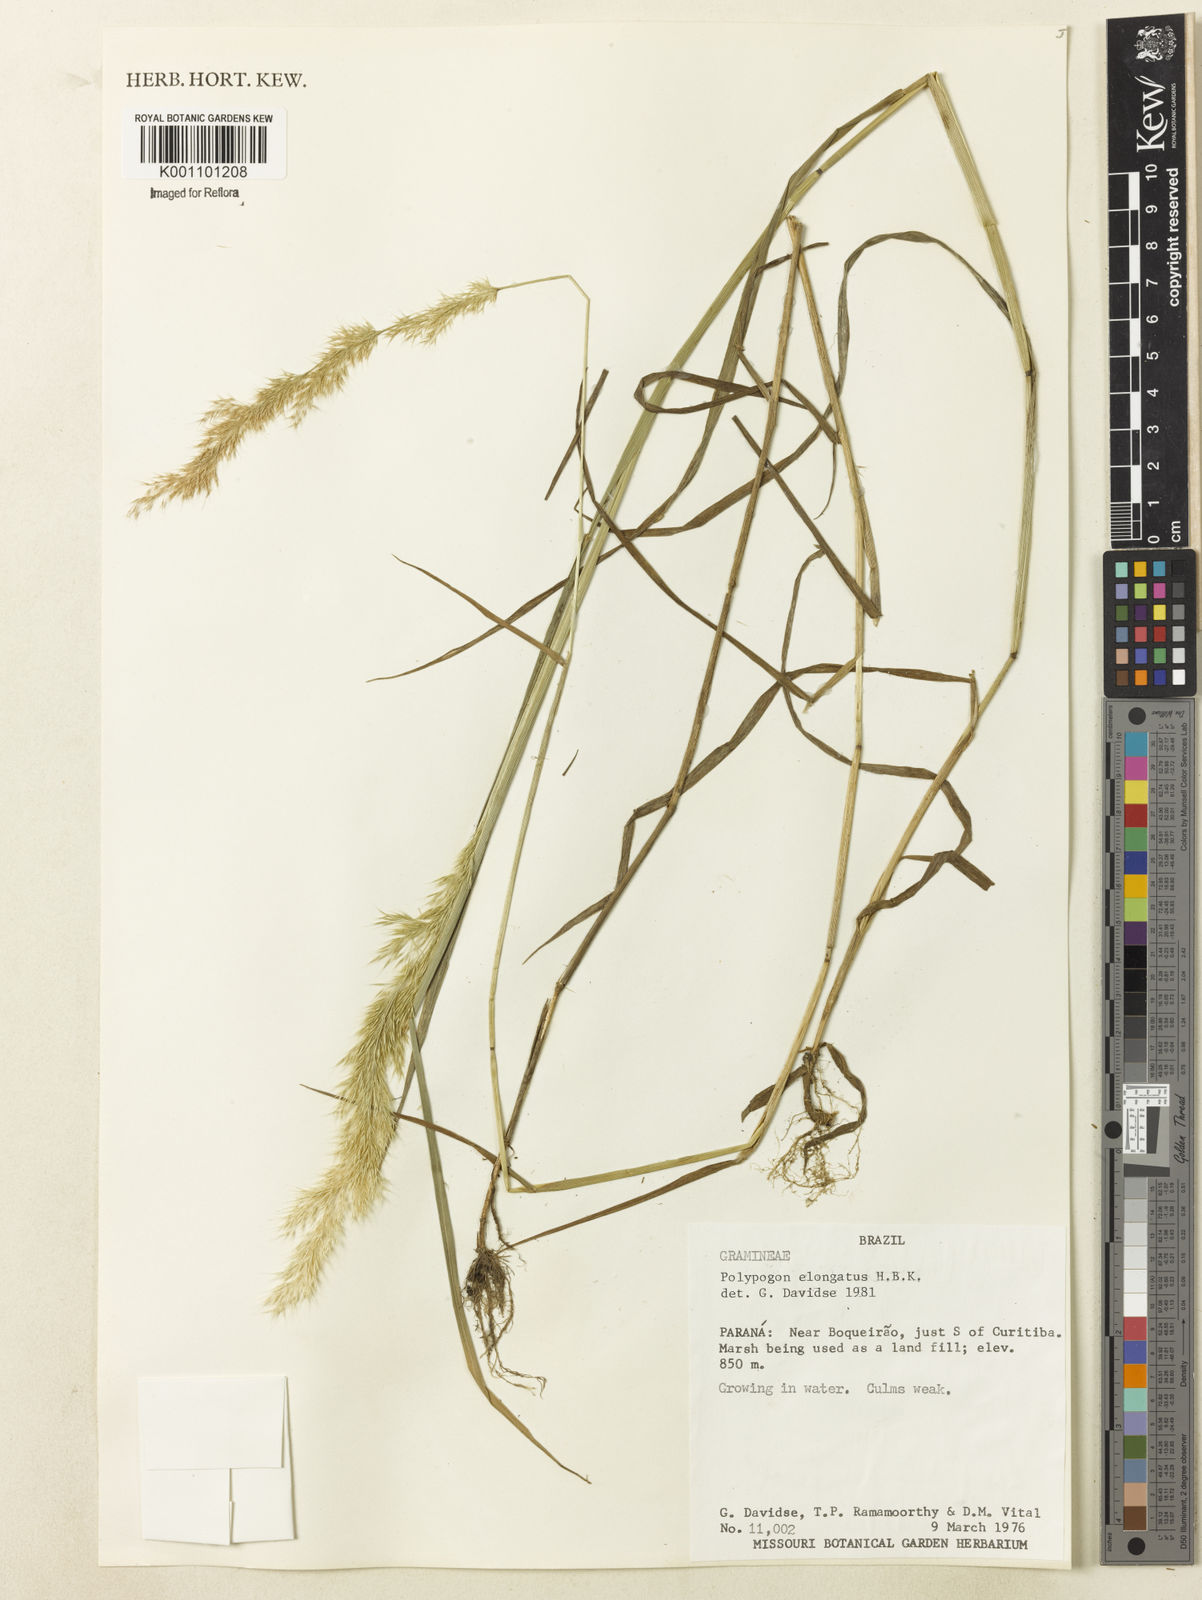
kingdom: Plantae
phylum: Tracheophyta
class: Liliopsida
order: Poales
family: Poaceae
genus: Polypogon
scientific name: Polypogon elongatus
